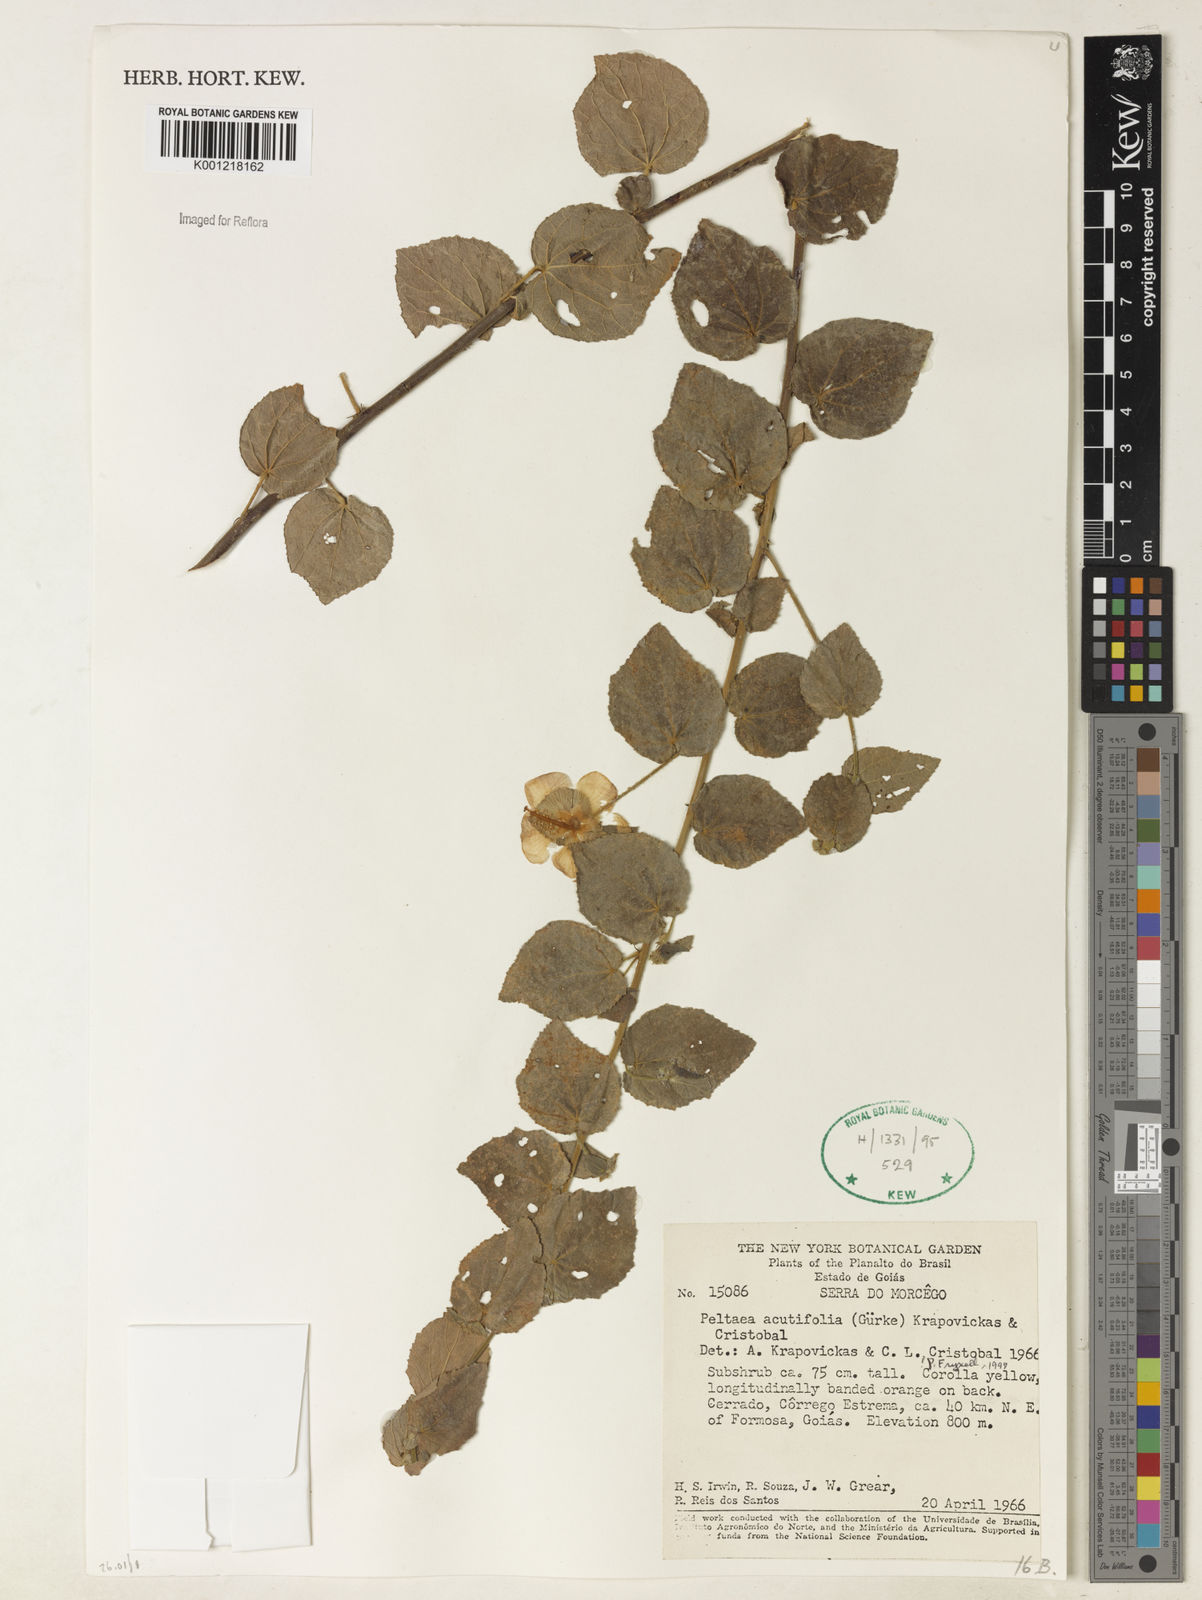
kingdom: Plantae
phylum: Tracheophyta
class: Magnoliopsida
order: Malvales
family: Malvaceae
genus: Peltaea
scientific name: Peltaea
